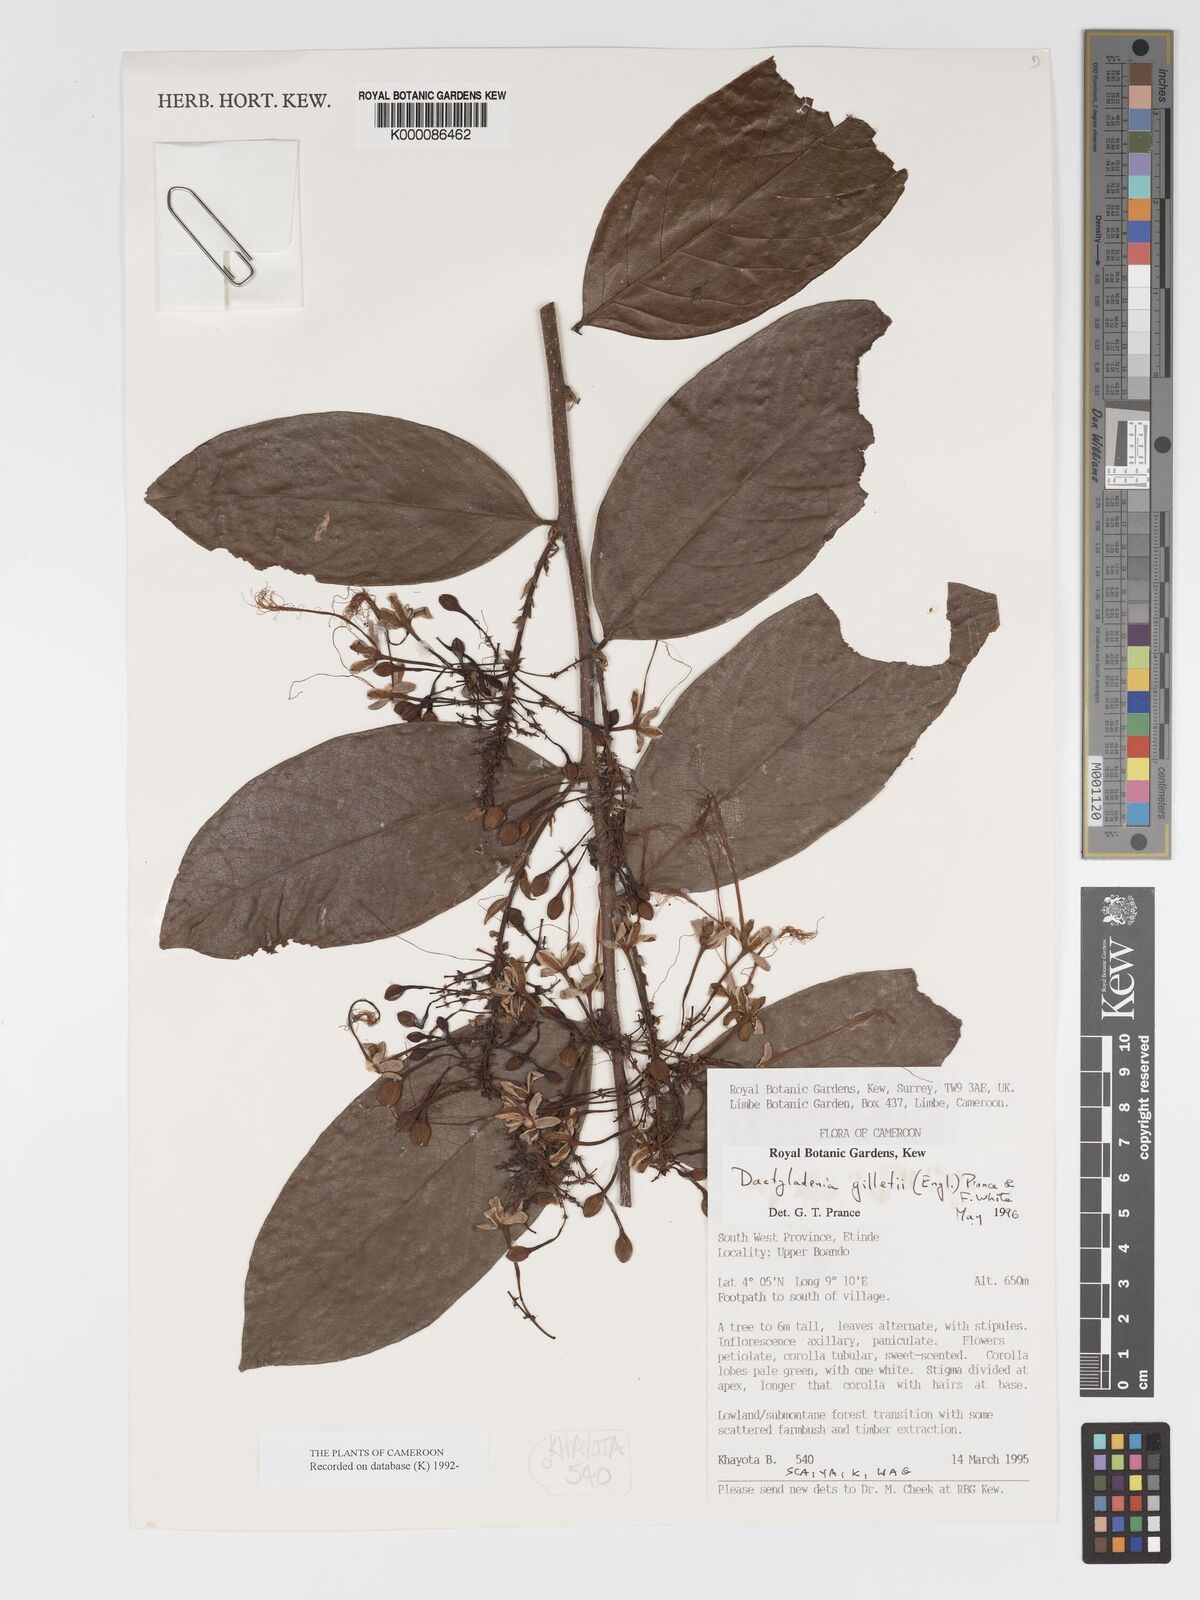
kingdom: Plantae
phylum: Tracheophyta
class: Magnoliopsida
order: Malpighiales
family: Chrysobalanaceae
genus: Dactyladenia
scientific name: Dactyladenia gilletii
